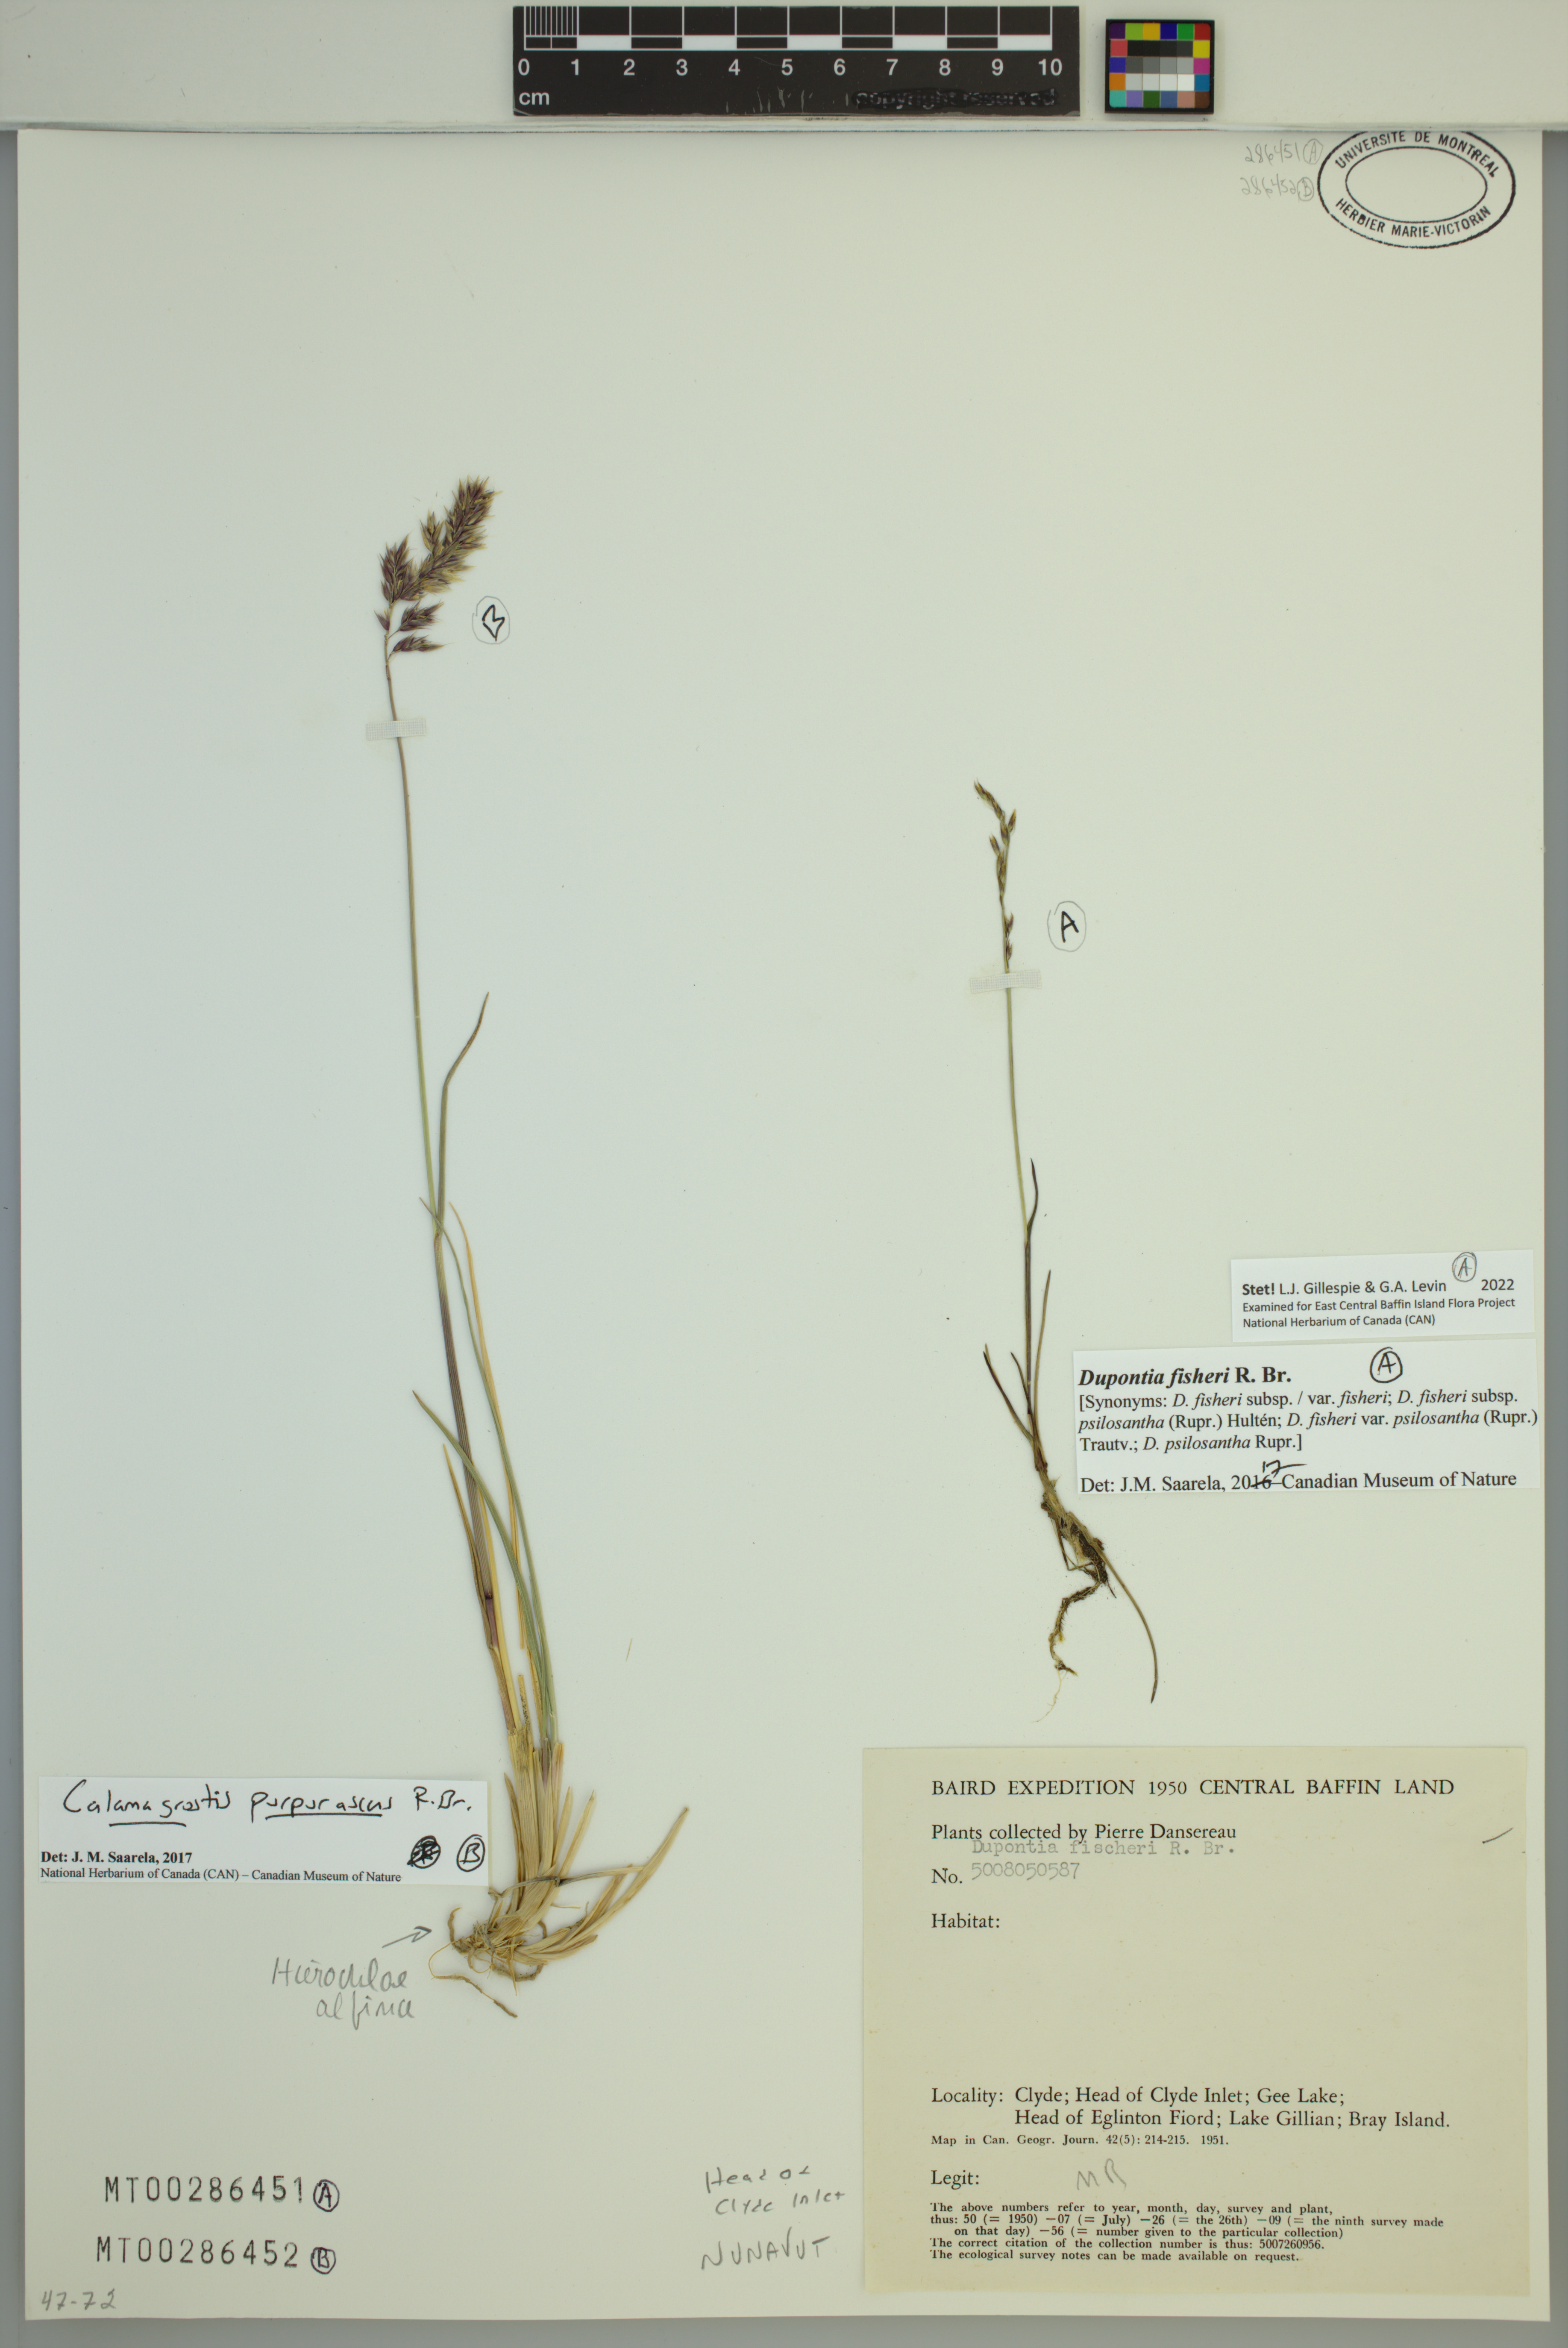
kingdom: Plantae
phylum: Tracheophyta
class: Liliopsida
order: Poales
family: Poaceae
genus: Dupontia
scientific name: Dupontia fisheri
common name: Tundra grass
